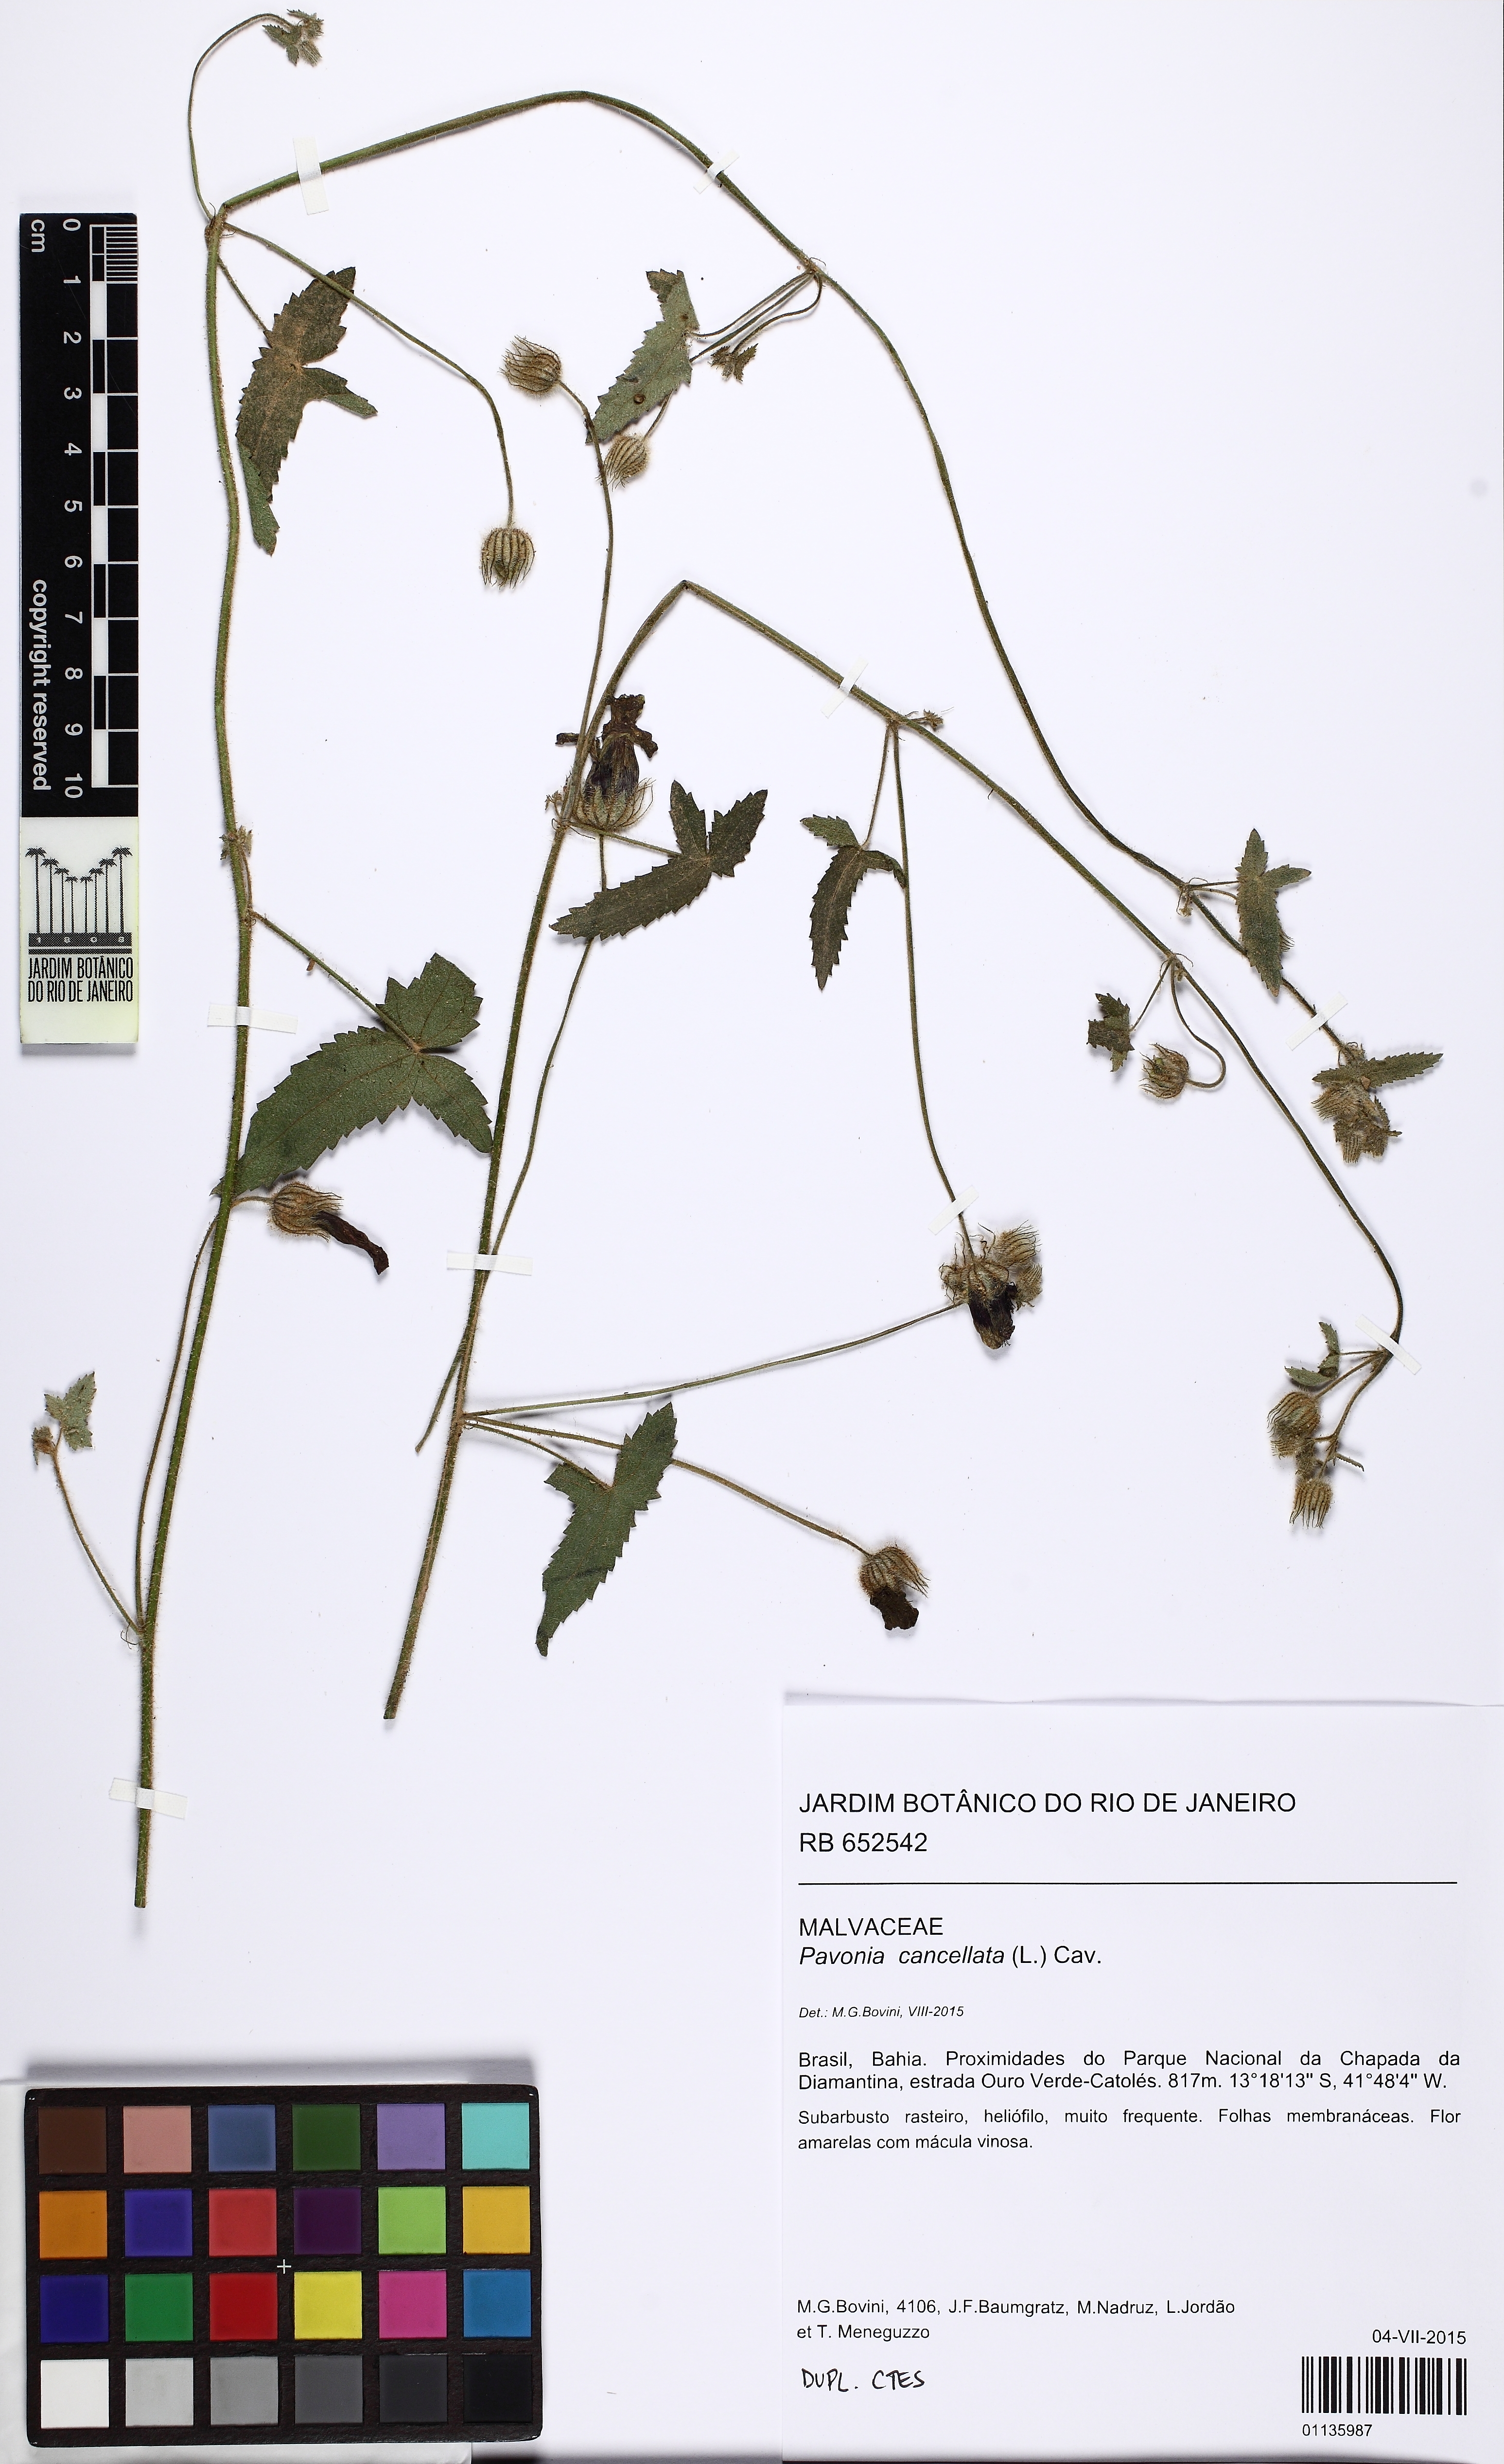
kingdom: Plantae
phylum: Tracheophyta
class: Magnoliopsida
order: Malvales
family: Malvaceae
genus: Pavonia
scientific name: Pavonia cancellata
